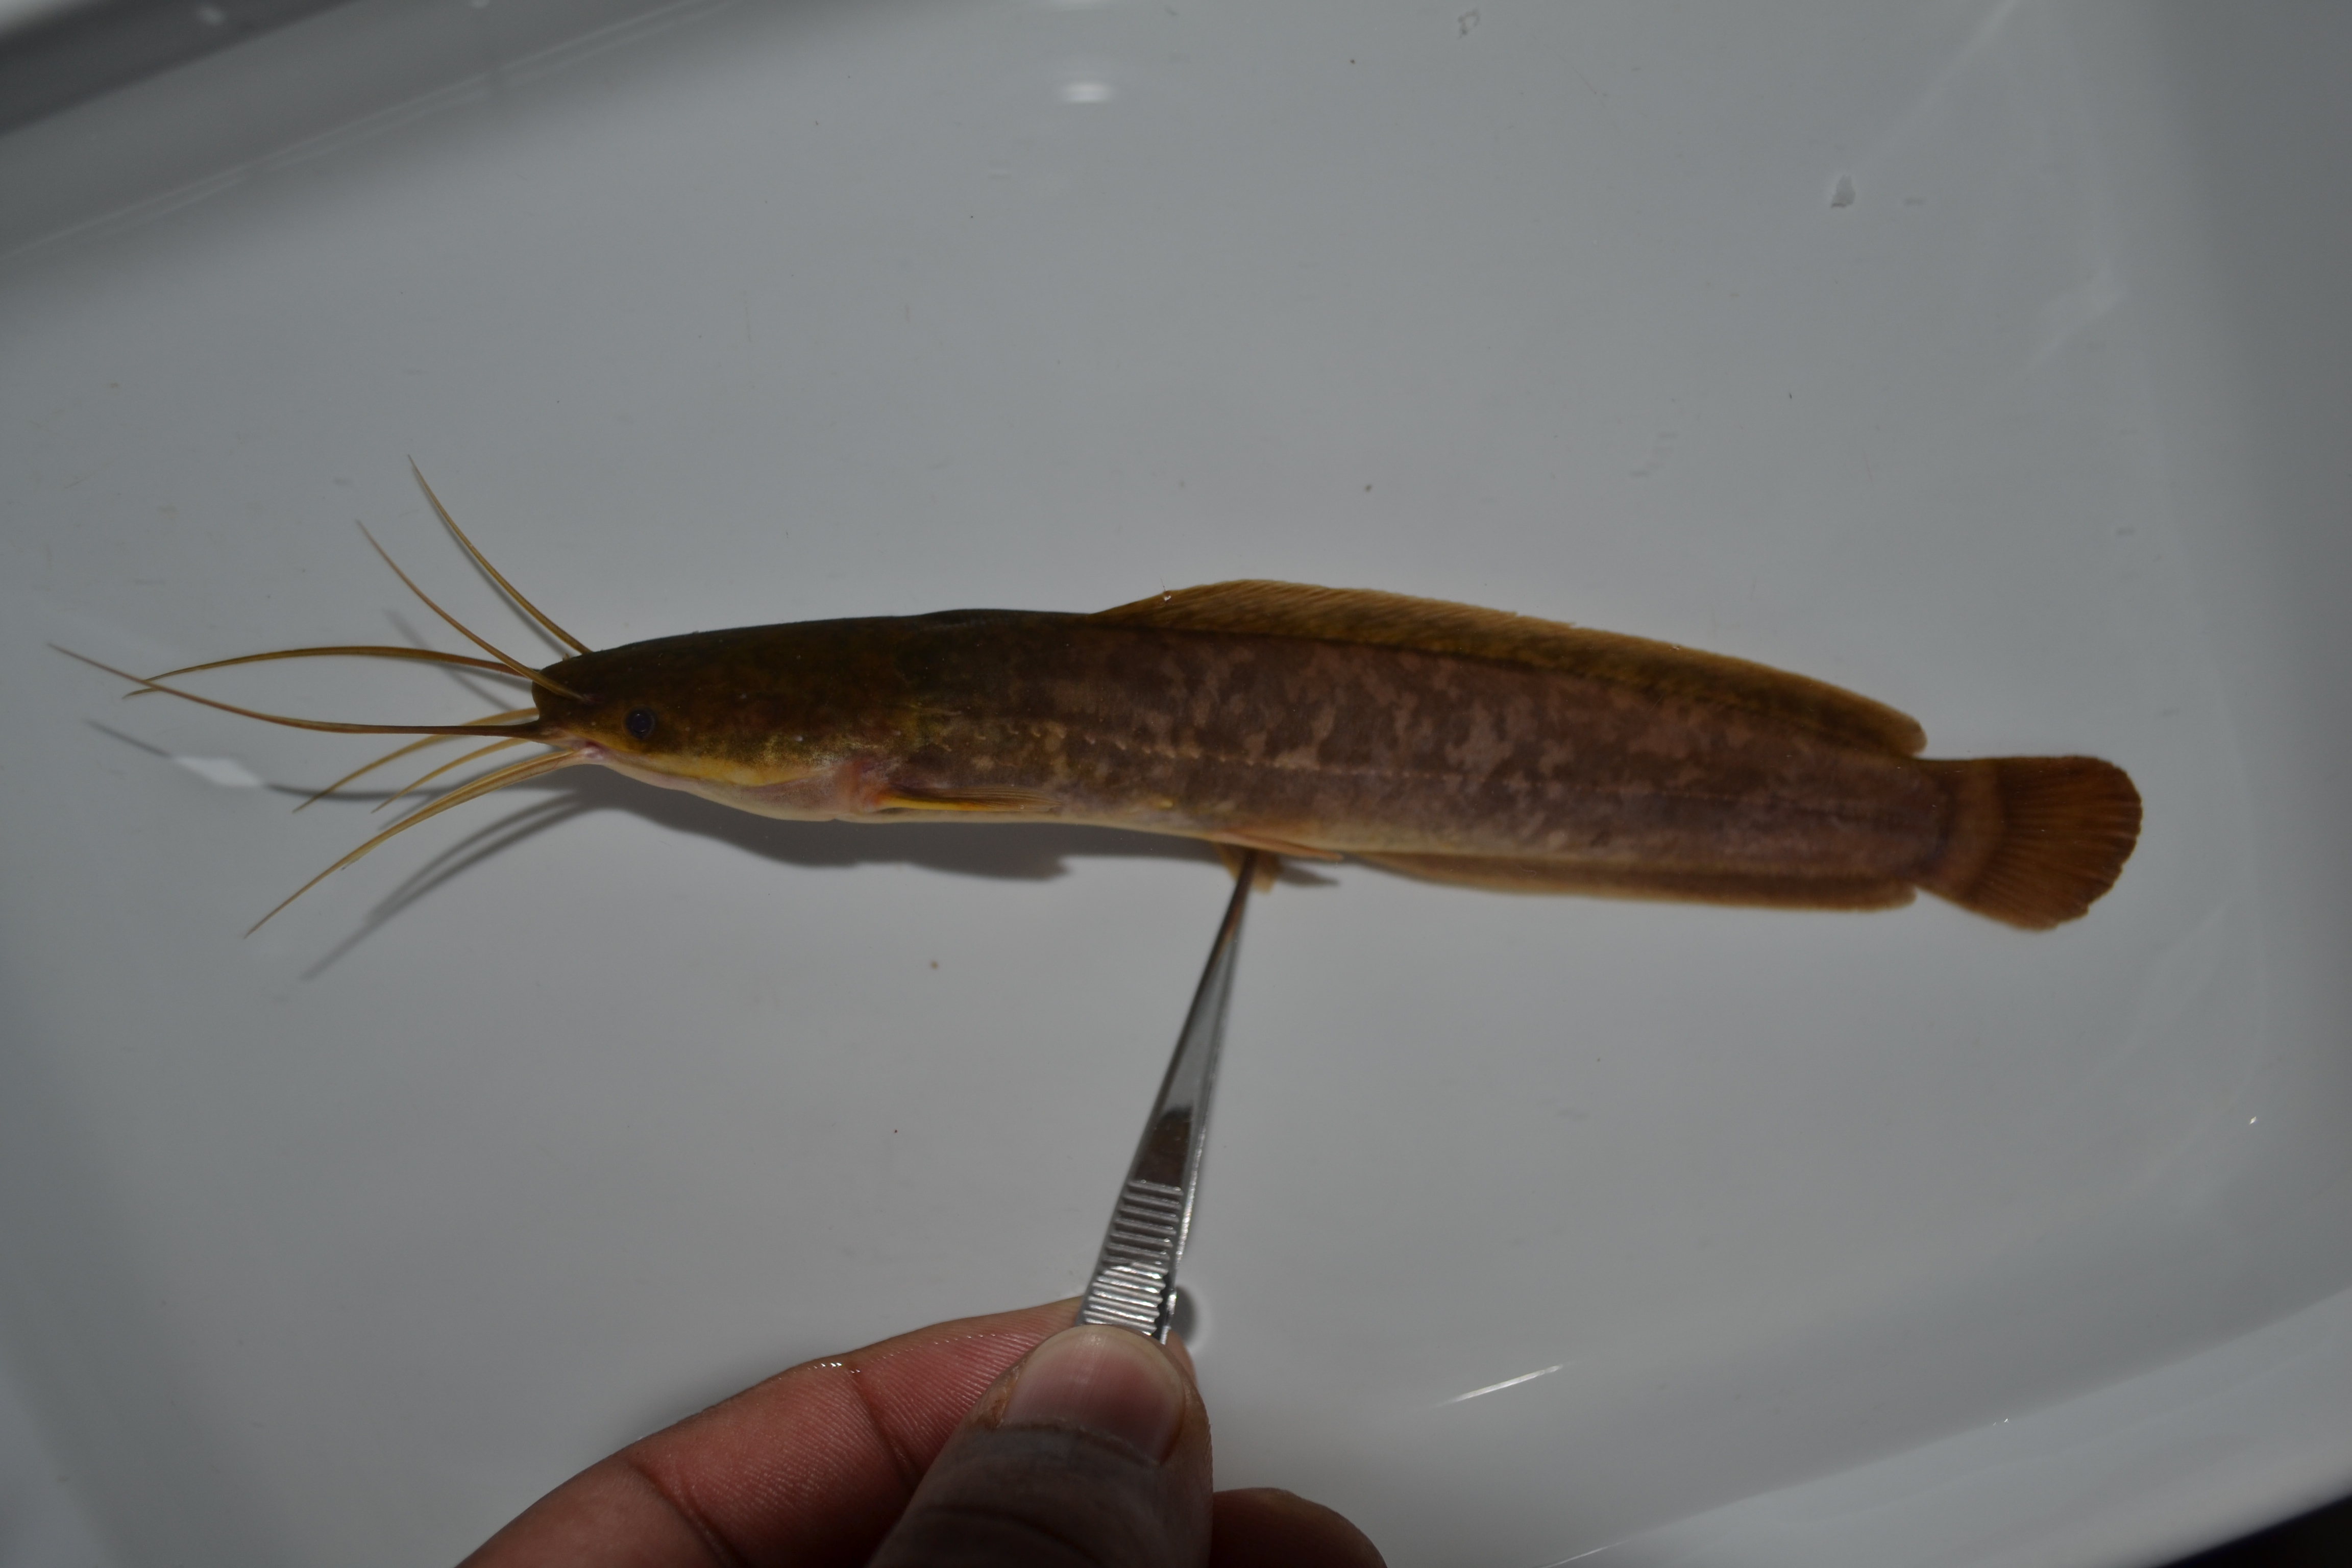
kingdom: Animalia
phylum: Chordata
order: Siluriformes
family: Clariidae
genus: Clarias
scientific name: Clarias gariepinus
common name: African catfish
